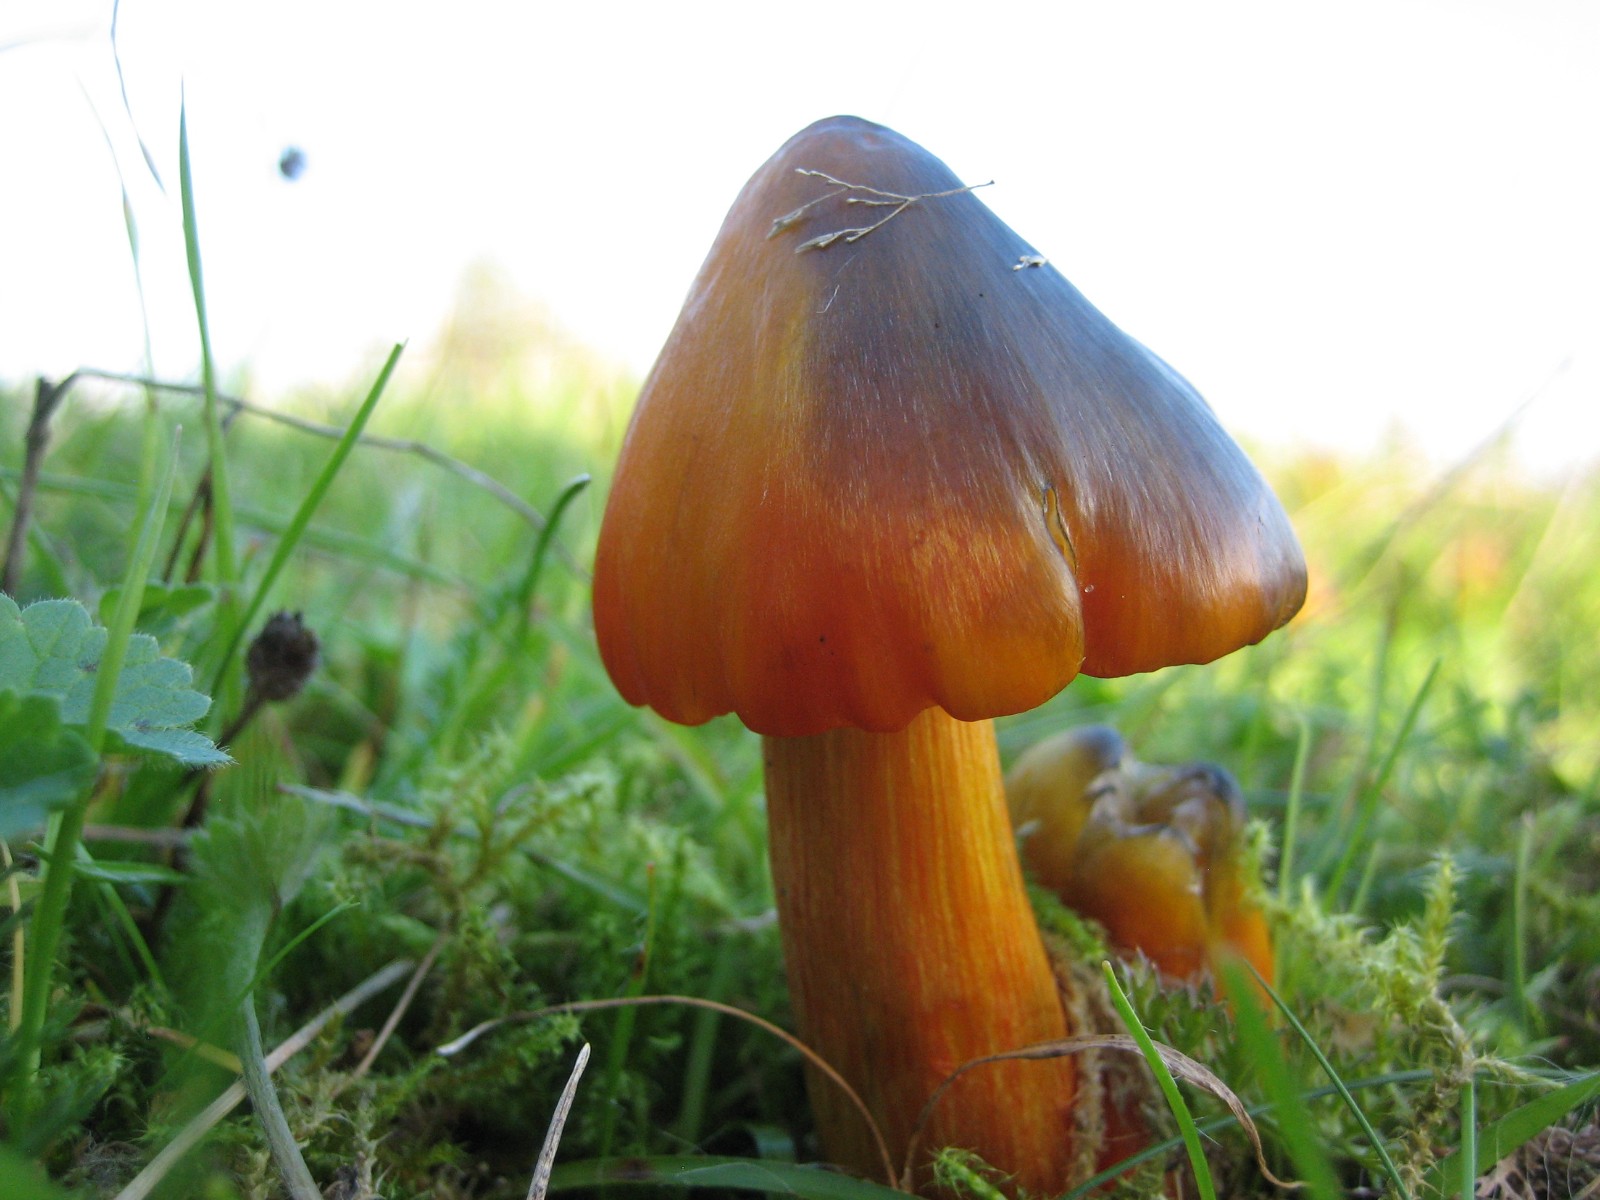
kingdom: Fungi
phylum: Basidiomycota
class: Agaricomycetes
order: Agaricales
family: Hygrophoraceae
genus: Hygrocybe
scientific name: Hygrocybe conica
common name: kegle-vokshat
